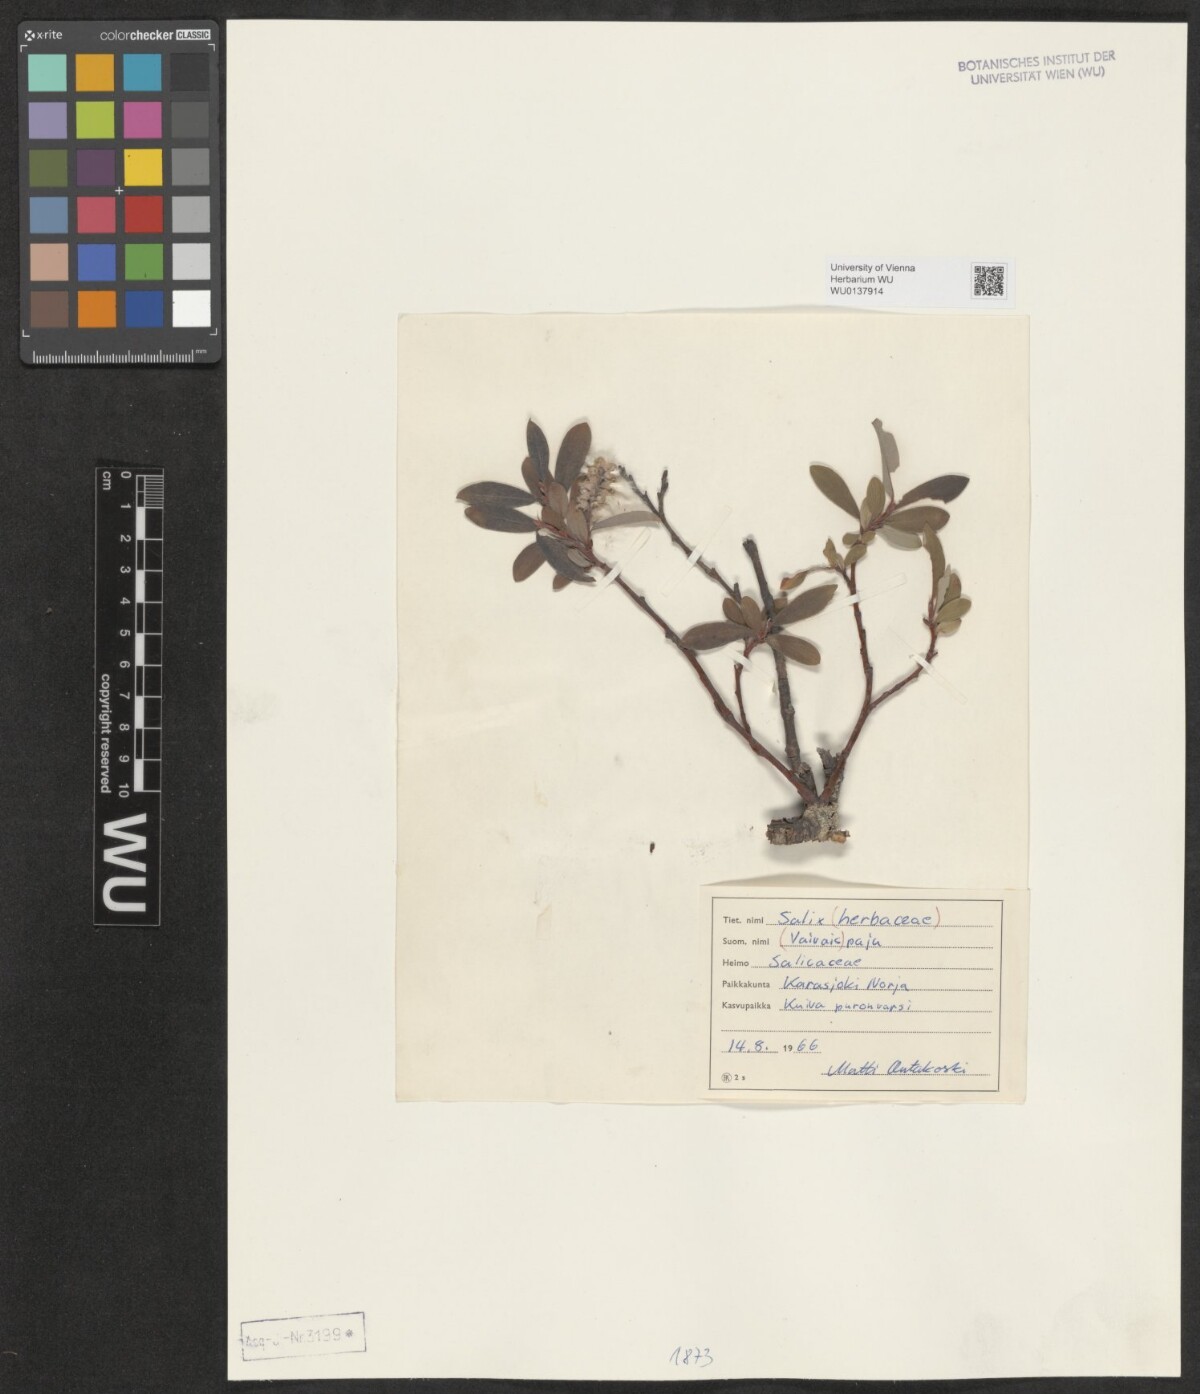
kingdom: Plantae
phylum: Tracheophyta
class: Magnoliopsida
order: Malpighiales
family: Salicaceae
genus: Salix
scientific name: Salix herbacea
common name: Dwarf willow
